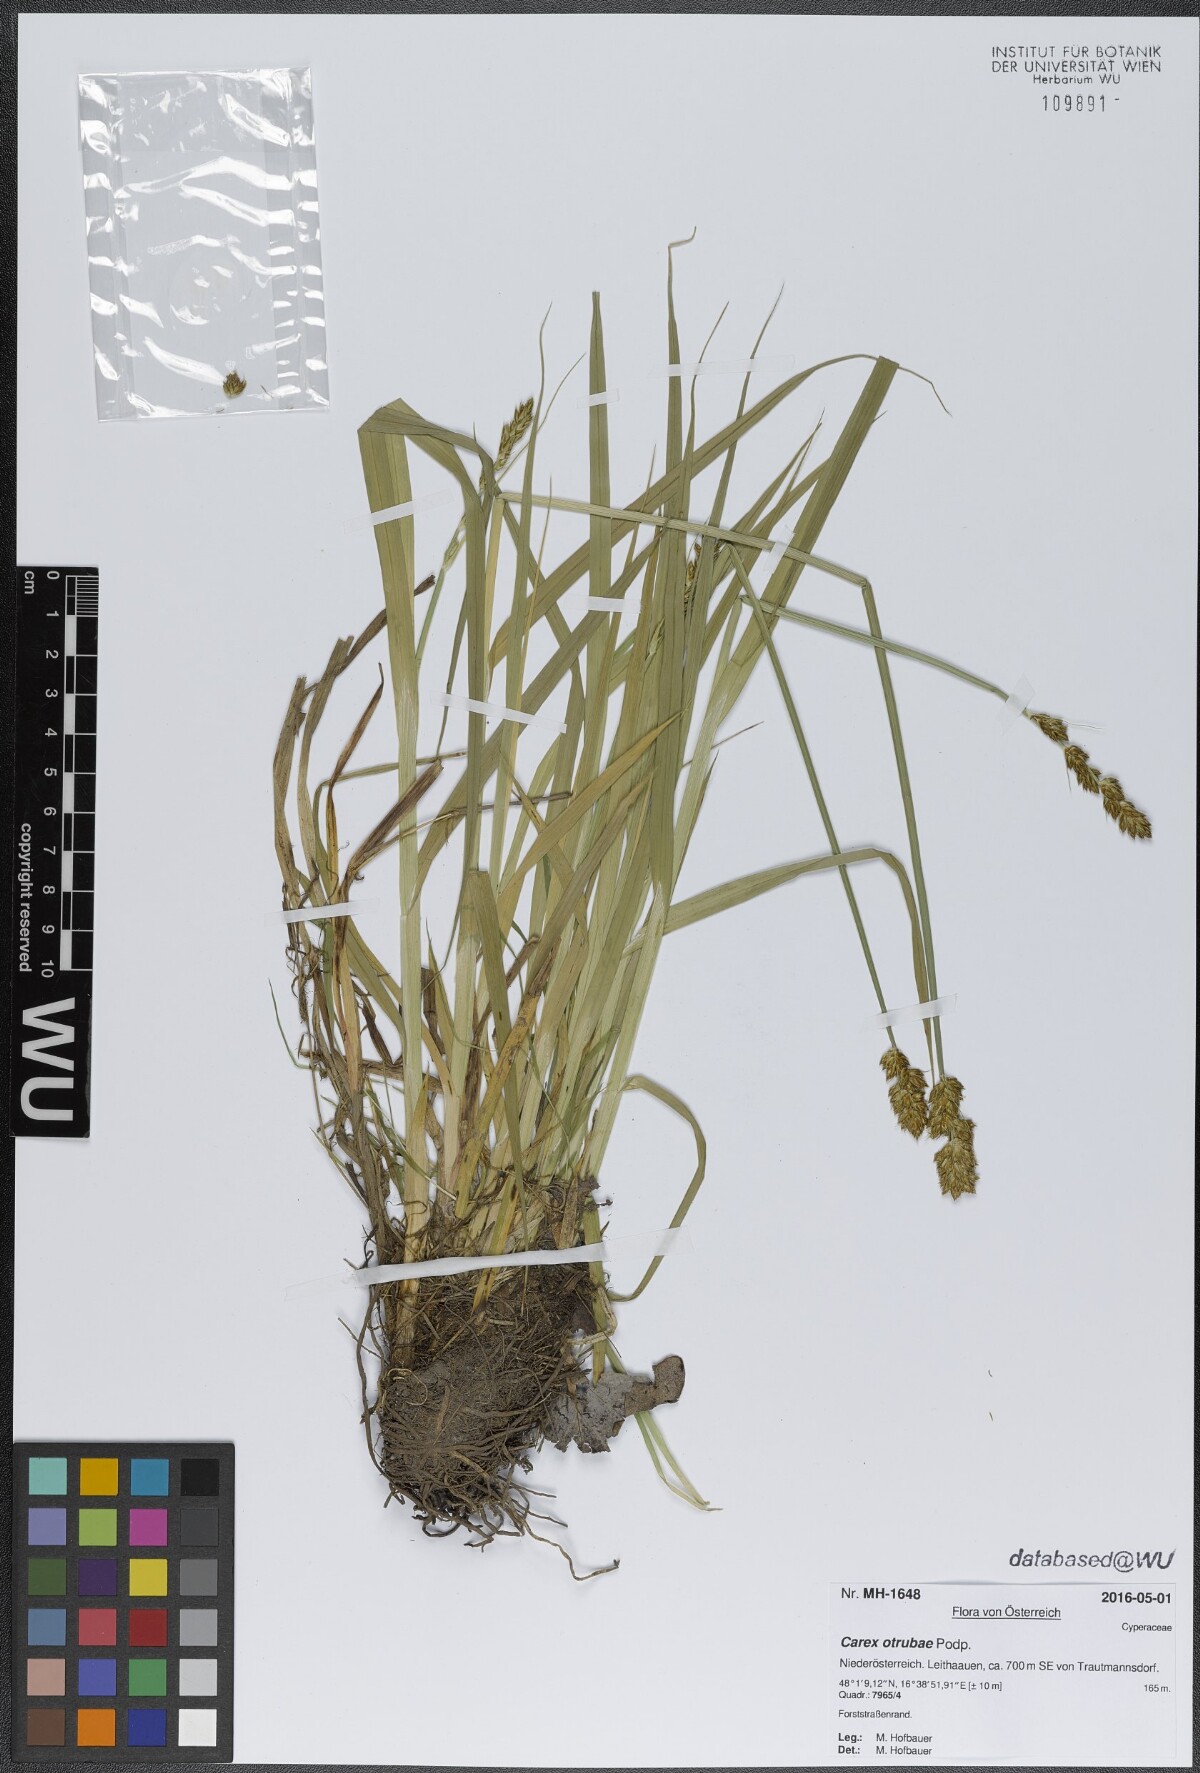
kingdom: Plantae
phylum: Tracheophyta
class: Liliopsida
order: Poales
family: Cyperaceae
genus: Carex
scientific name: Carex otrubae
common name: False fox-sedge
